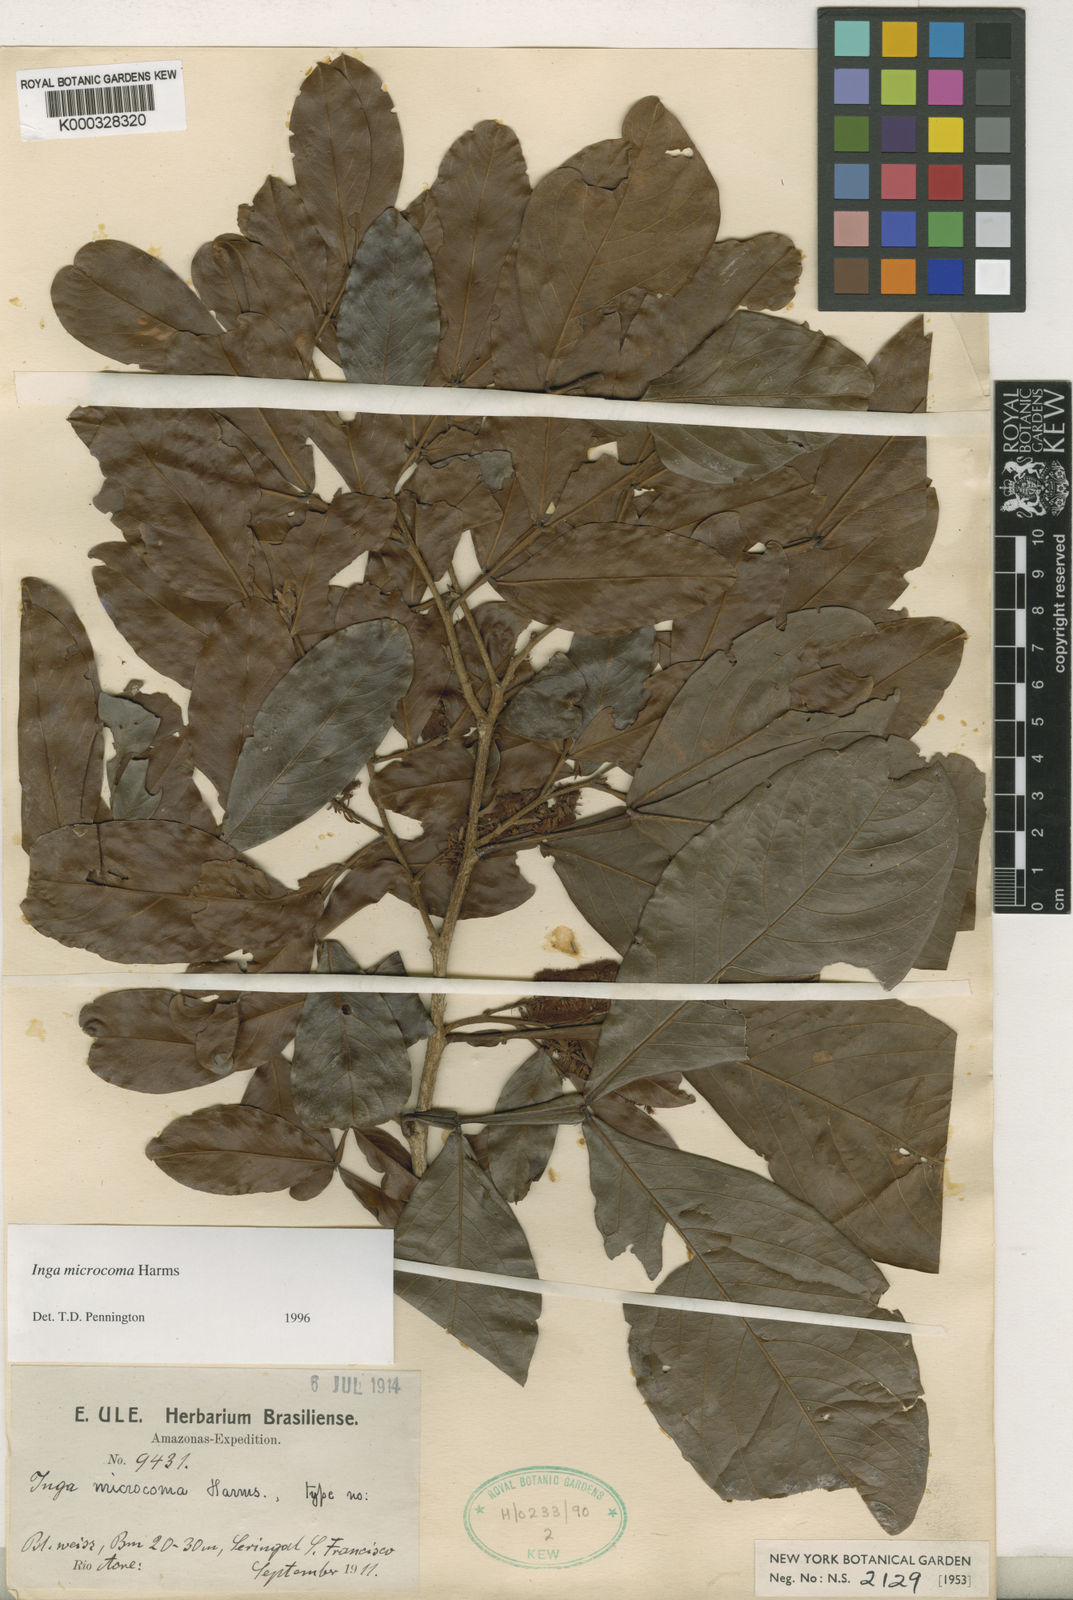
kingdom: Plantae
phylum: Tracheophyta
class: Magnoliopsida
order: Fabales
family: Fabaceae
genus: Inga
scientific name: Inga microcoma
